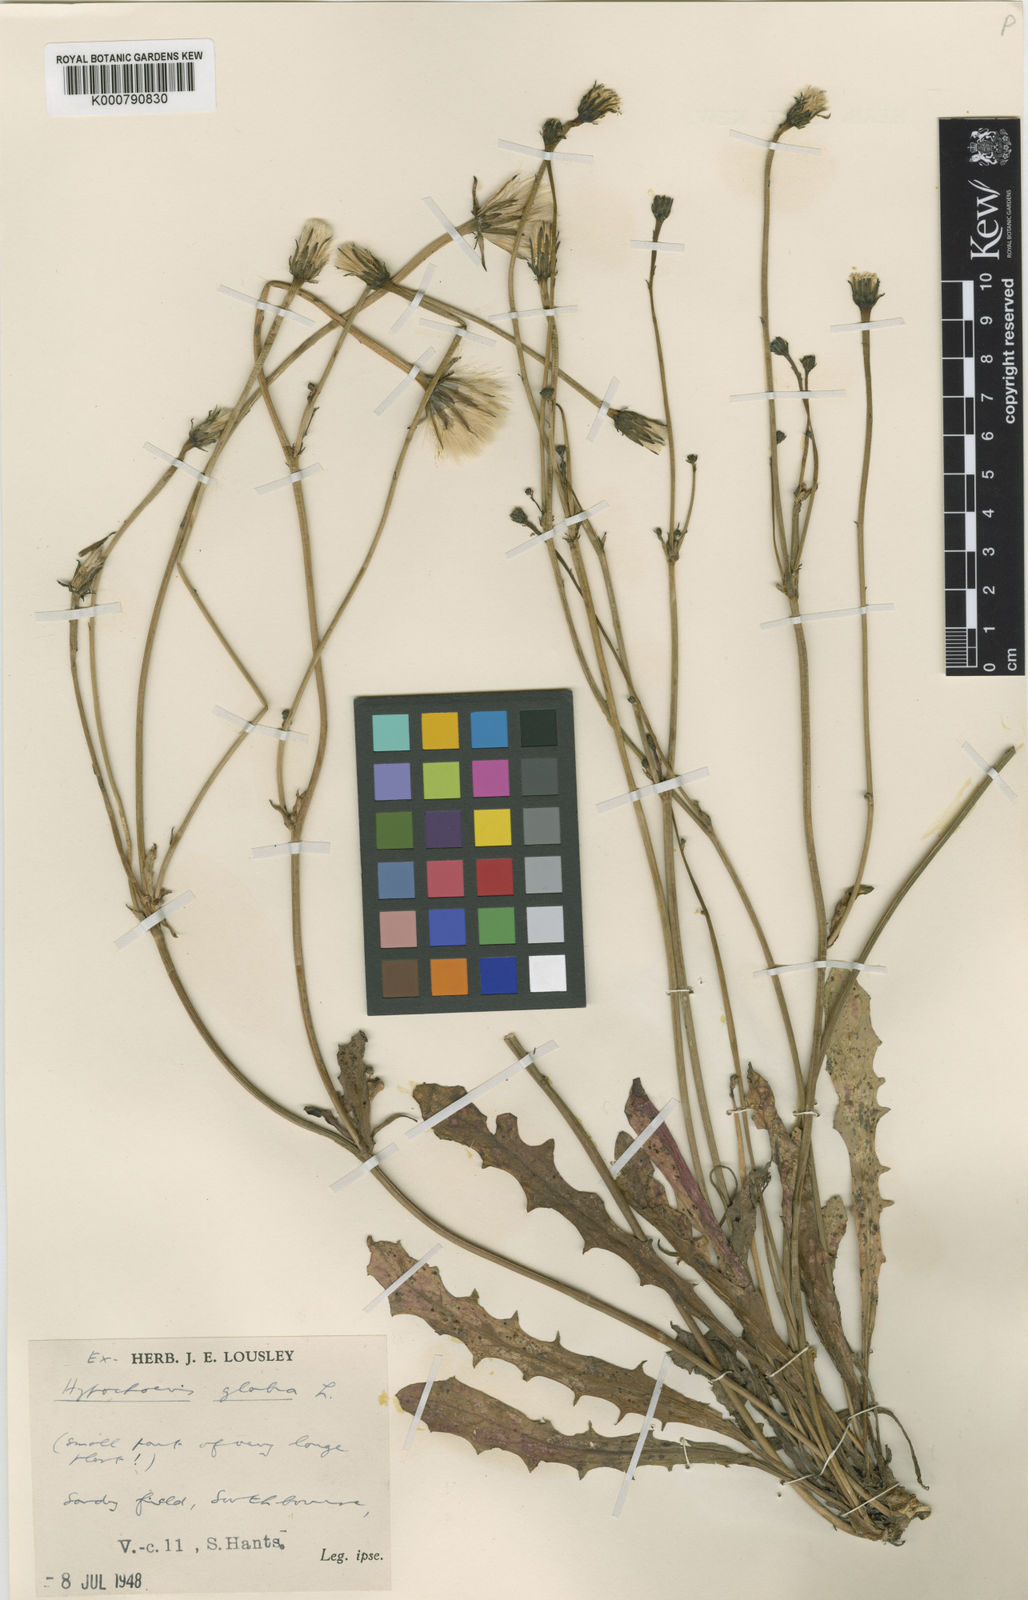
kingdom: Plantae
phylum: Tracheophyta
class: Magnoliopsida
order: Asterales
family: Asteraceae
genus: Hypochaeris
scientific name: Hypochaeris glabra
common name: Smooth catsear
